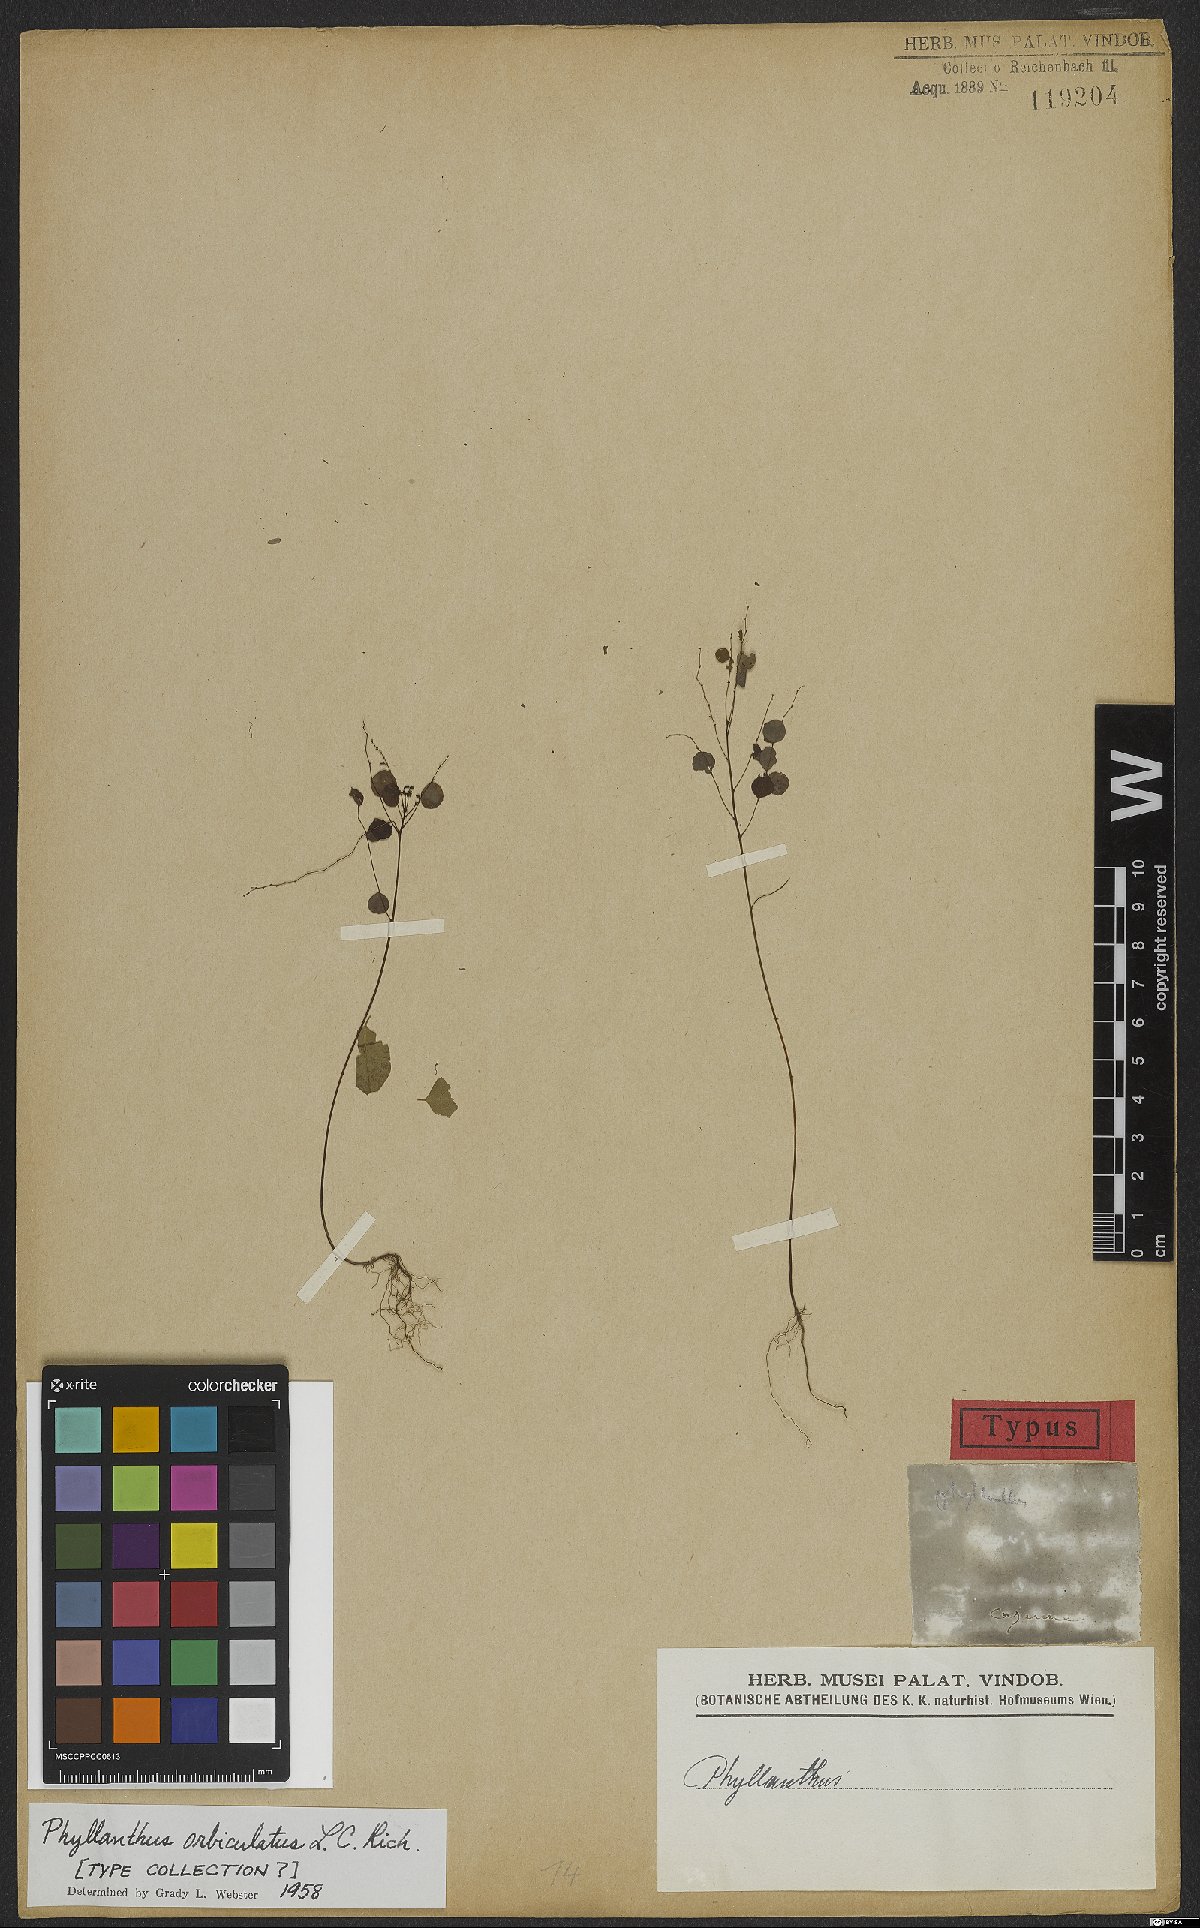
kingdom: Plantae
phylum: Tracheophyta
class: Magnoliopsida
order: Malpighiales
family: Phyllanthaceae
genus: Phyllanthus
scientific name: Phyllanthus orbiculatus
